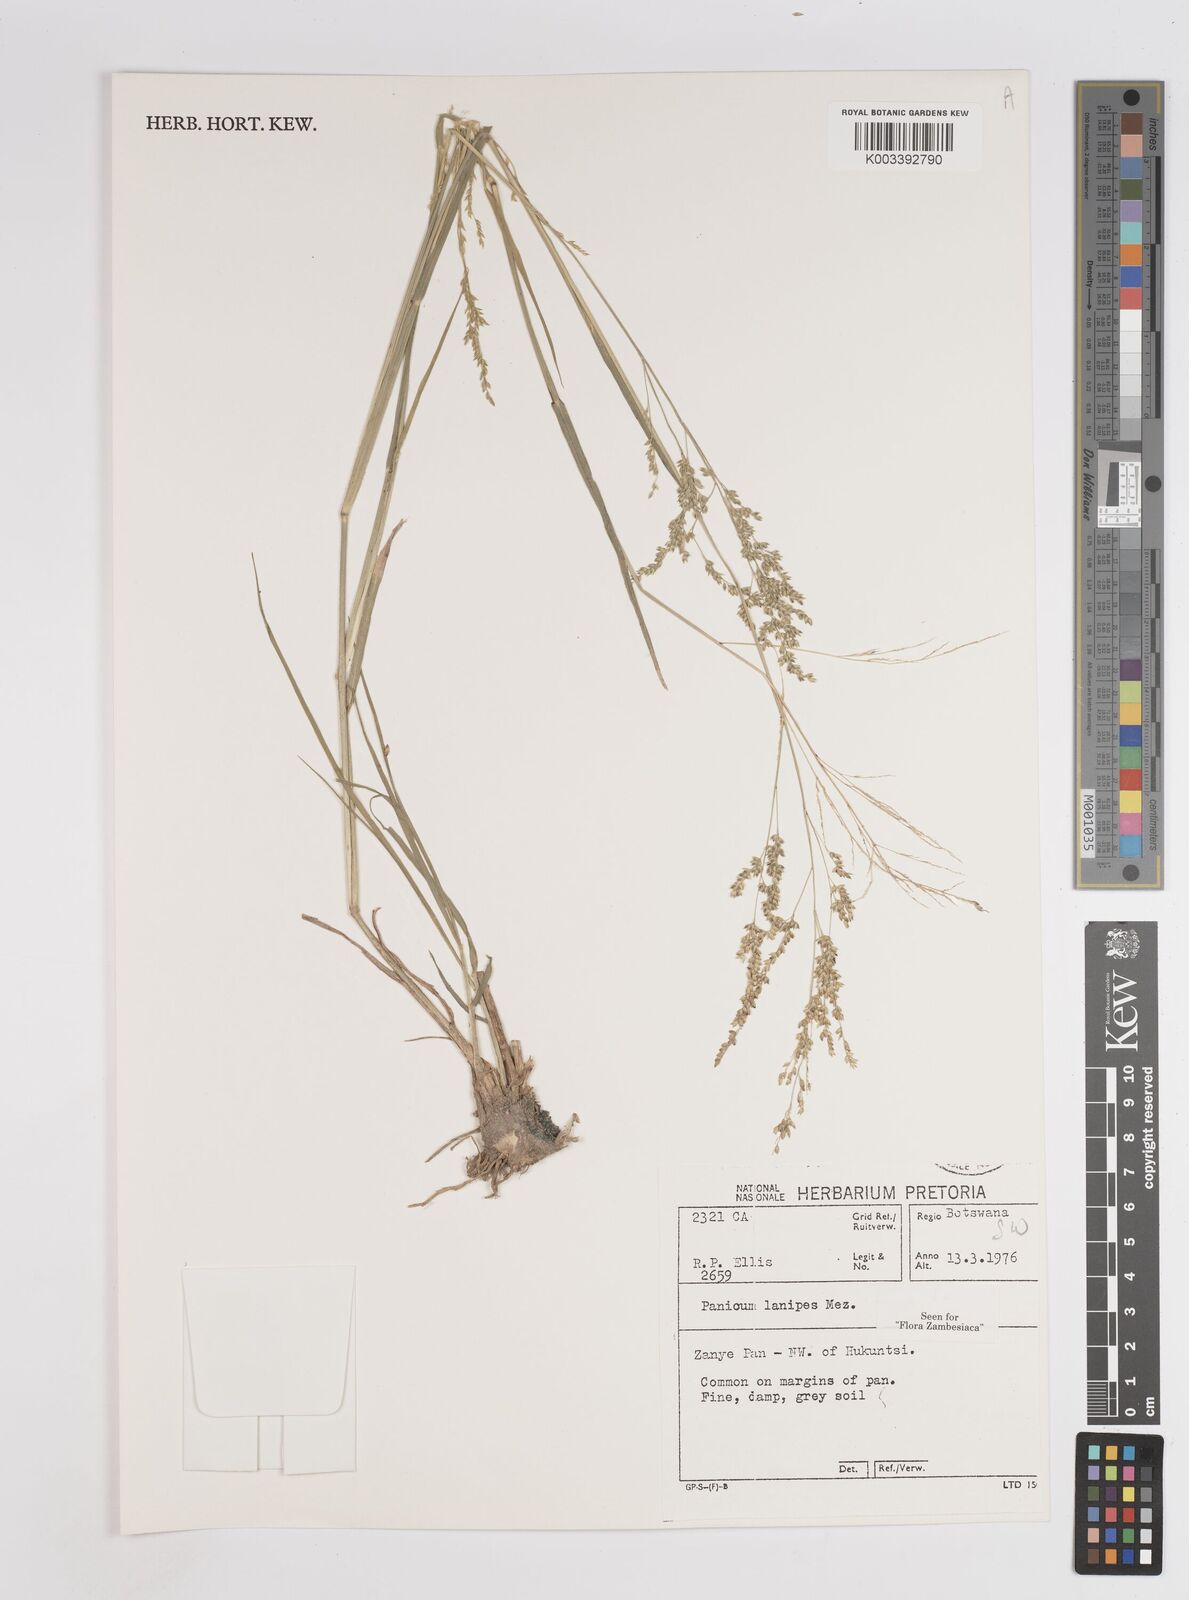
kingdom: Plantae
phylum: Tracheophyta
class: Liliopsida
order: Poales
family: Poaceae
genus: Panicum
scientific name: Panicum lanipes
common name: Wolvoet panicum
